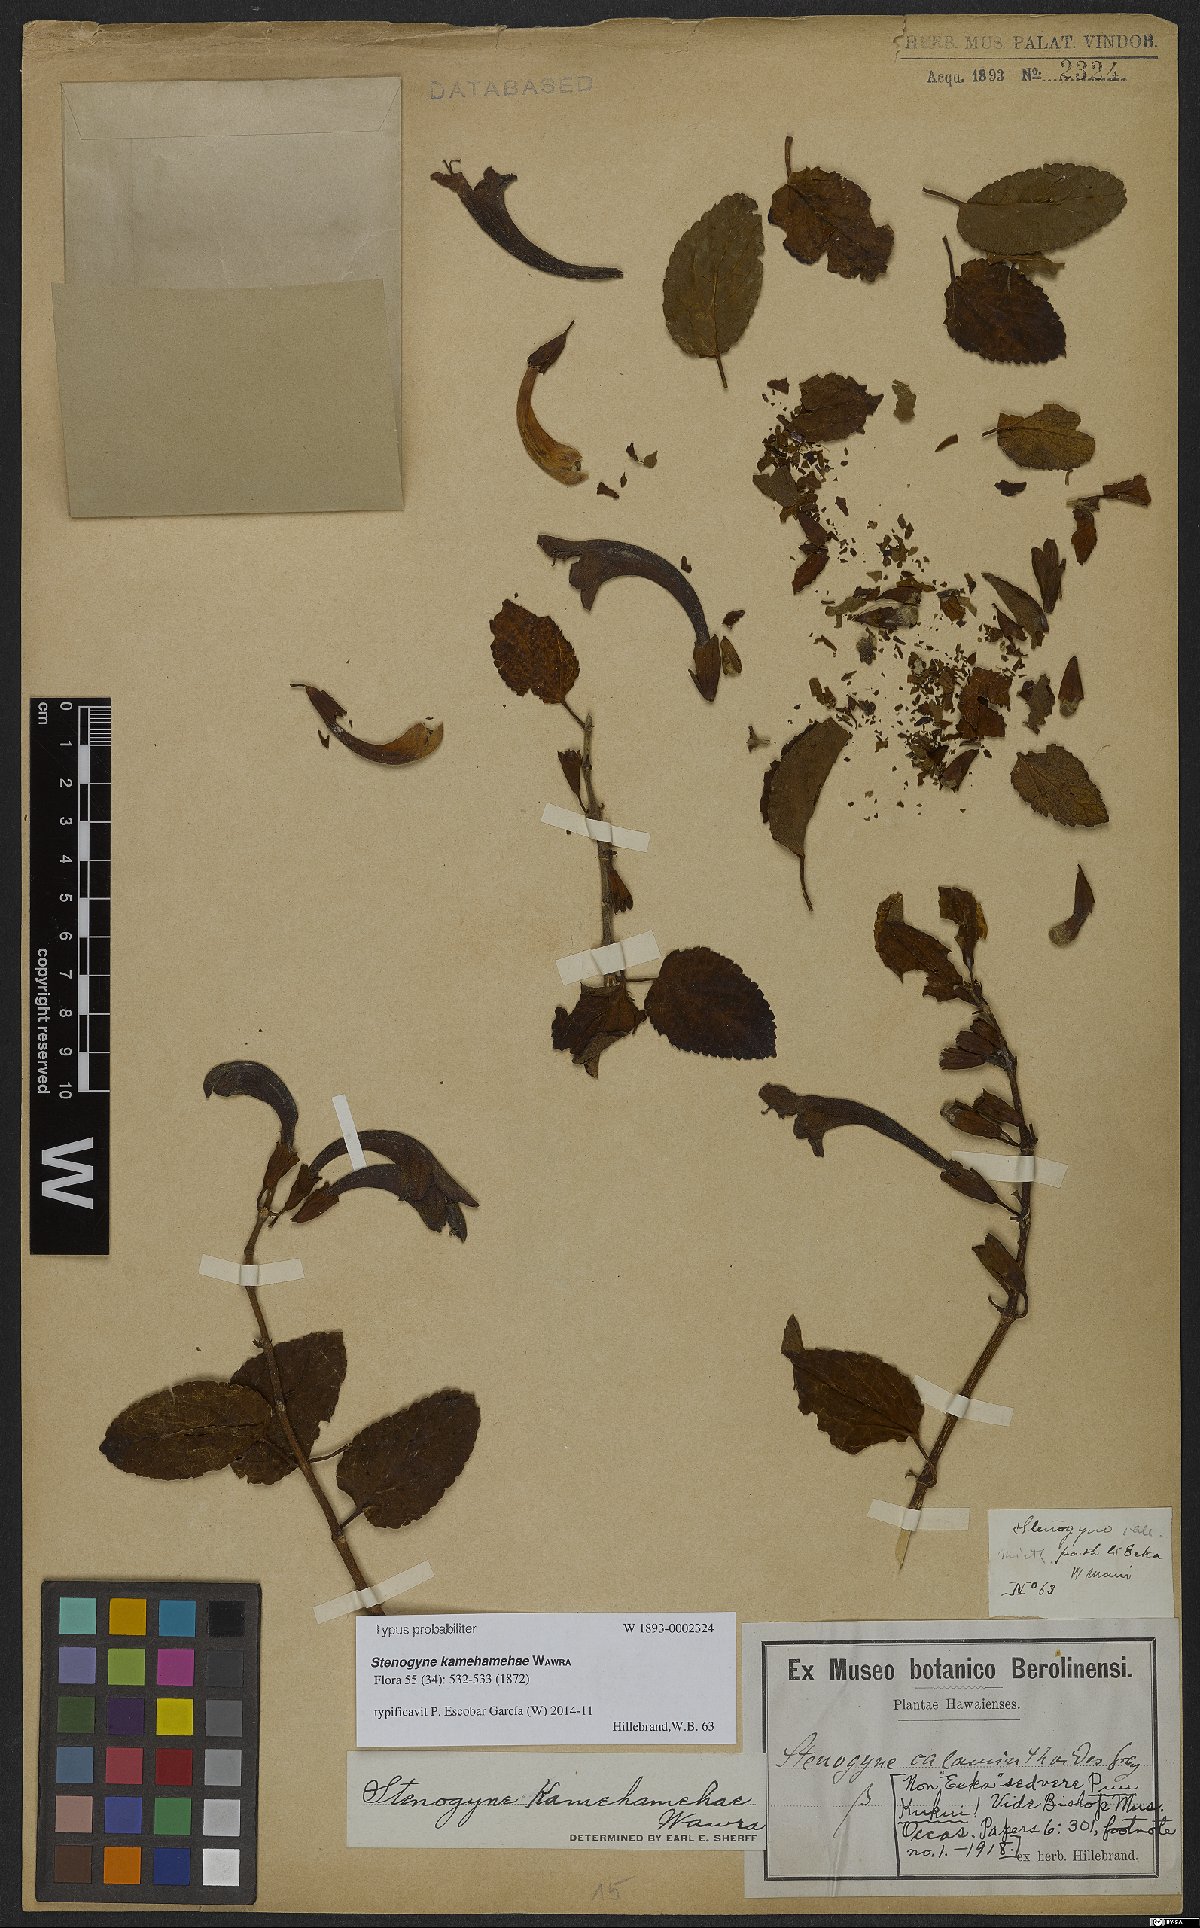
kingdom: Plantae
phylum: Tracheophyta
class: Magnoliopsida
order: Lamiales
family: Lamiaceae
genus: Stenogyne
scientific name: Stenogyne kamehamehae
